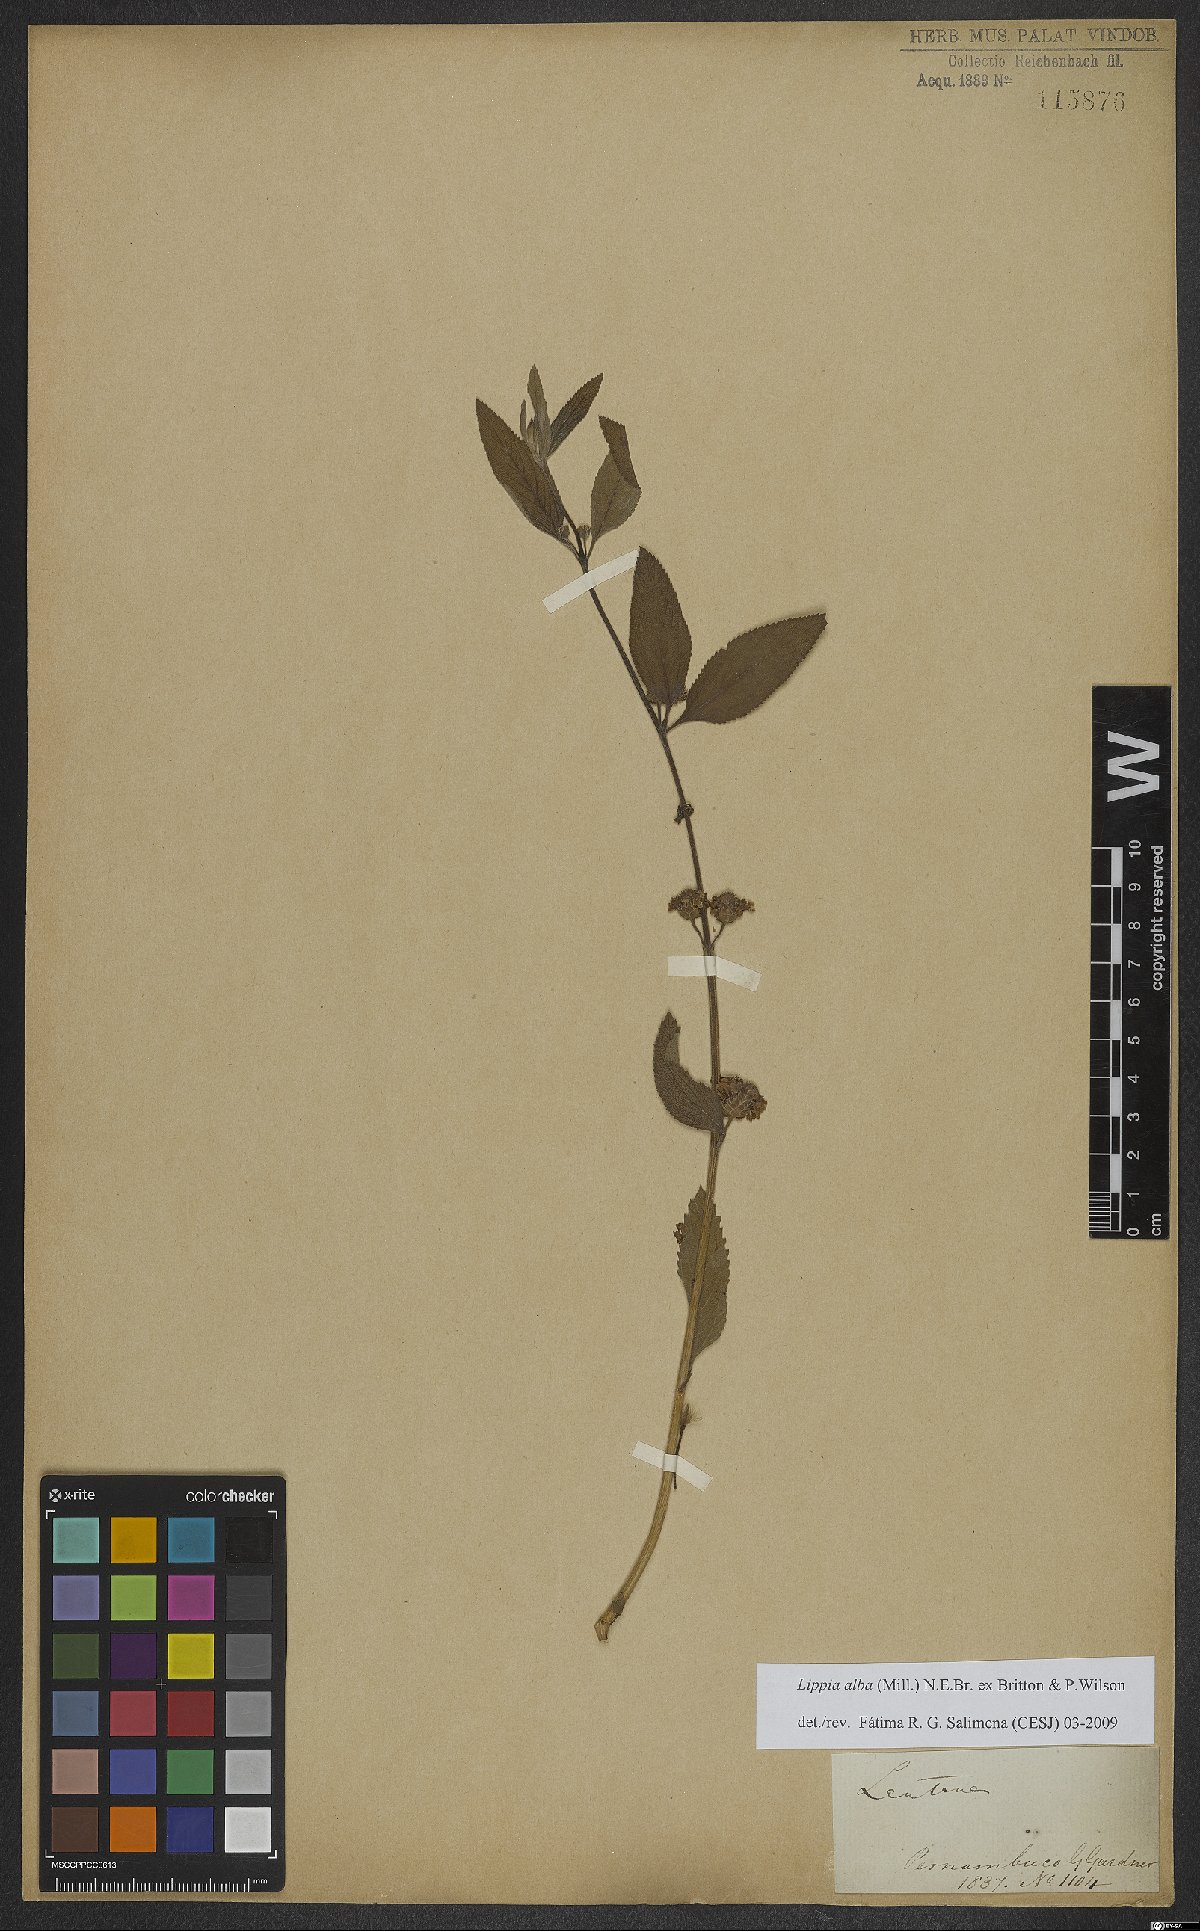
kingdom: Plantae
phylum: Tracheophyta
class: Magnoliopsida
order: Lamiales
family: Verbenaceae
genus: Lippia
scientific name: Lippia alba
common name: Bushy matgrass
